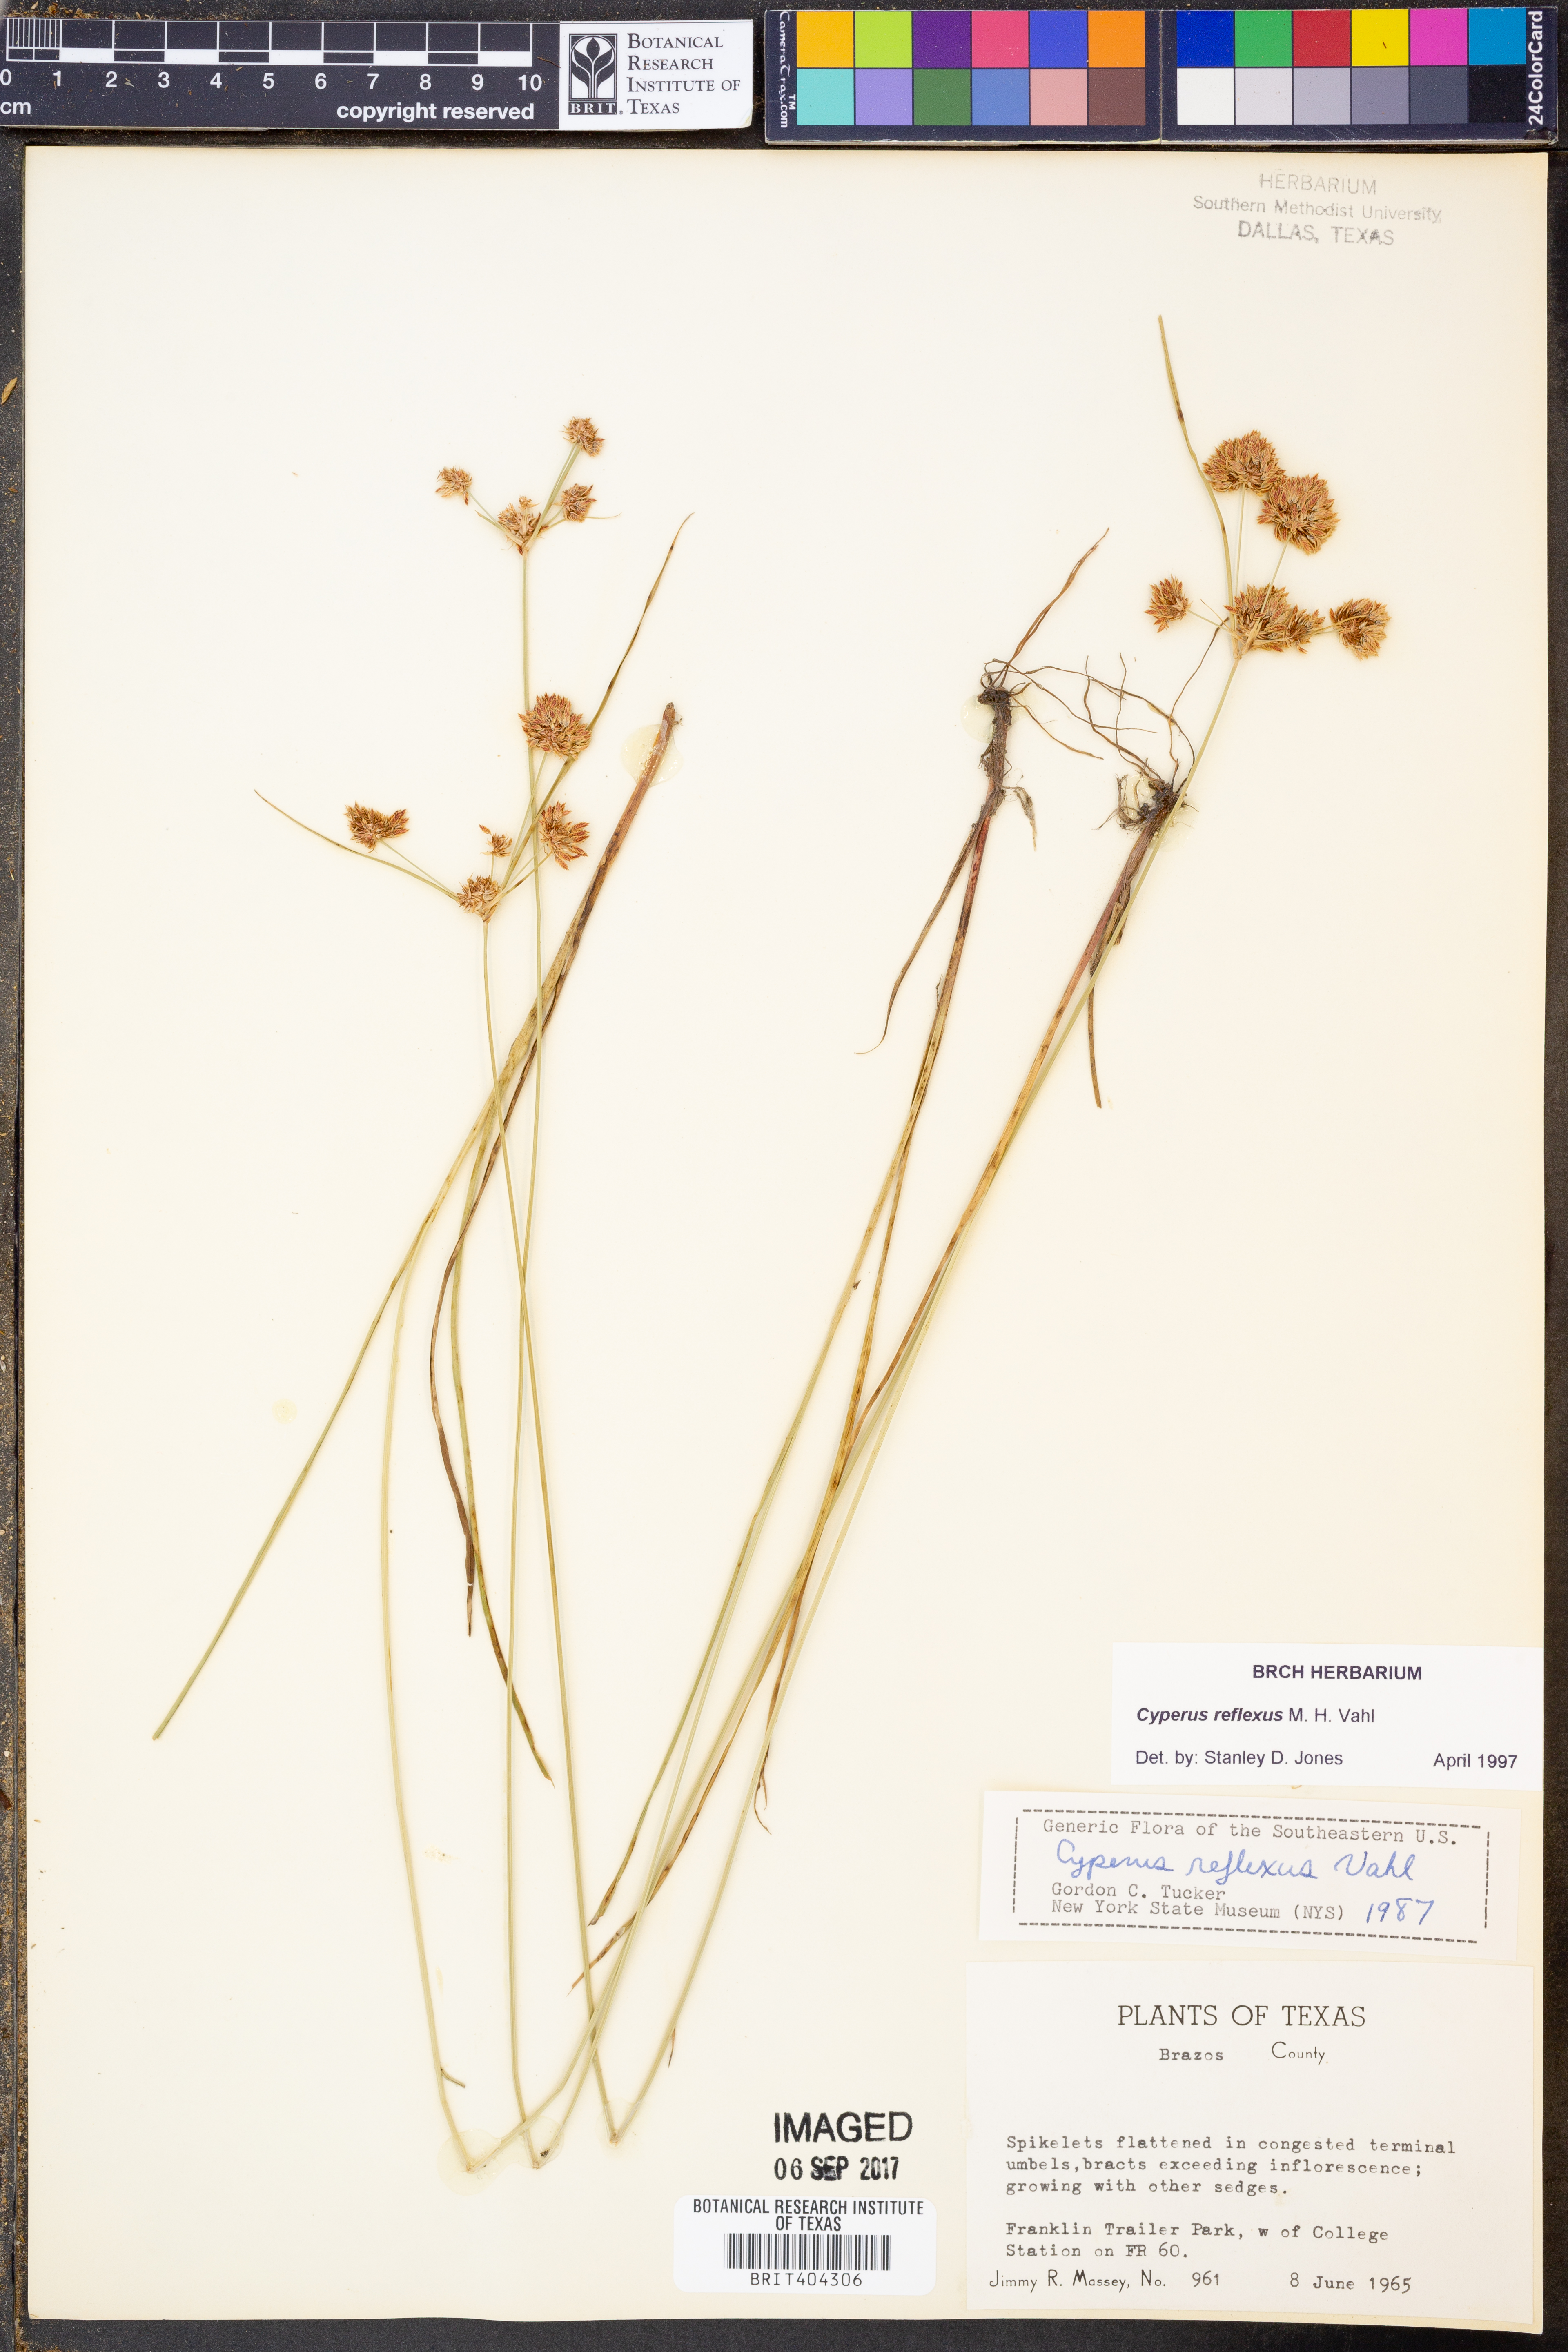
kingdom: Plantae
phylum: Tracheophyta
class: Liliopsida
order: Poales
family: Cyperaceae
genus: Cyperus
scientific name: Cyperus reflexus
